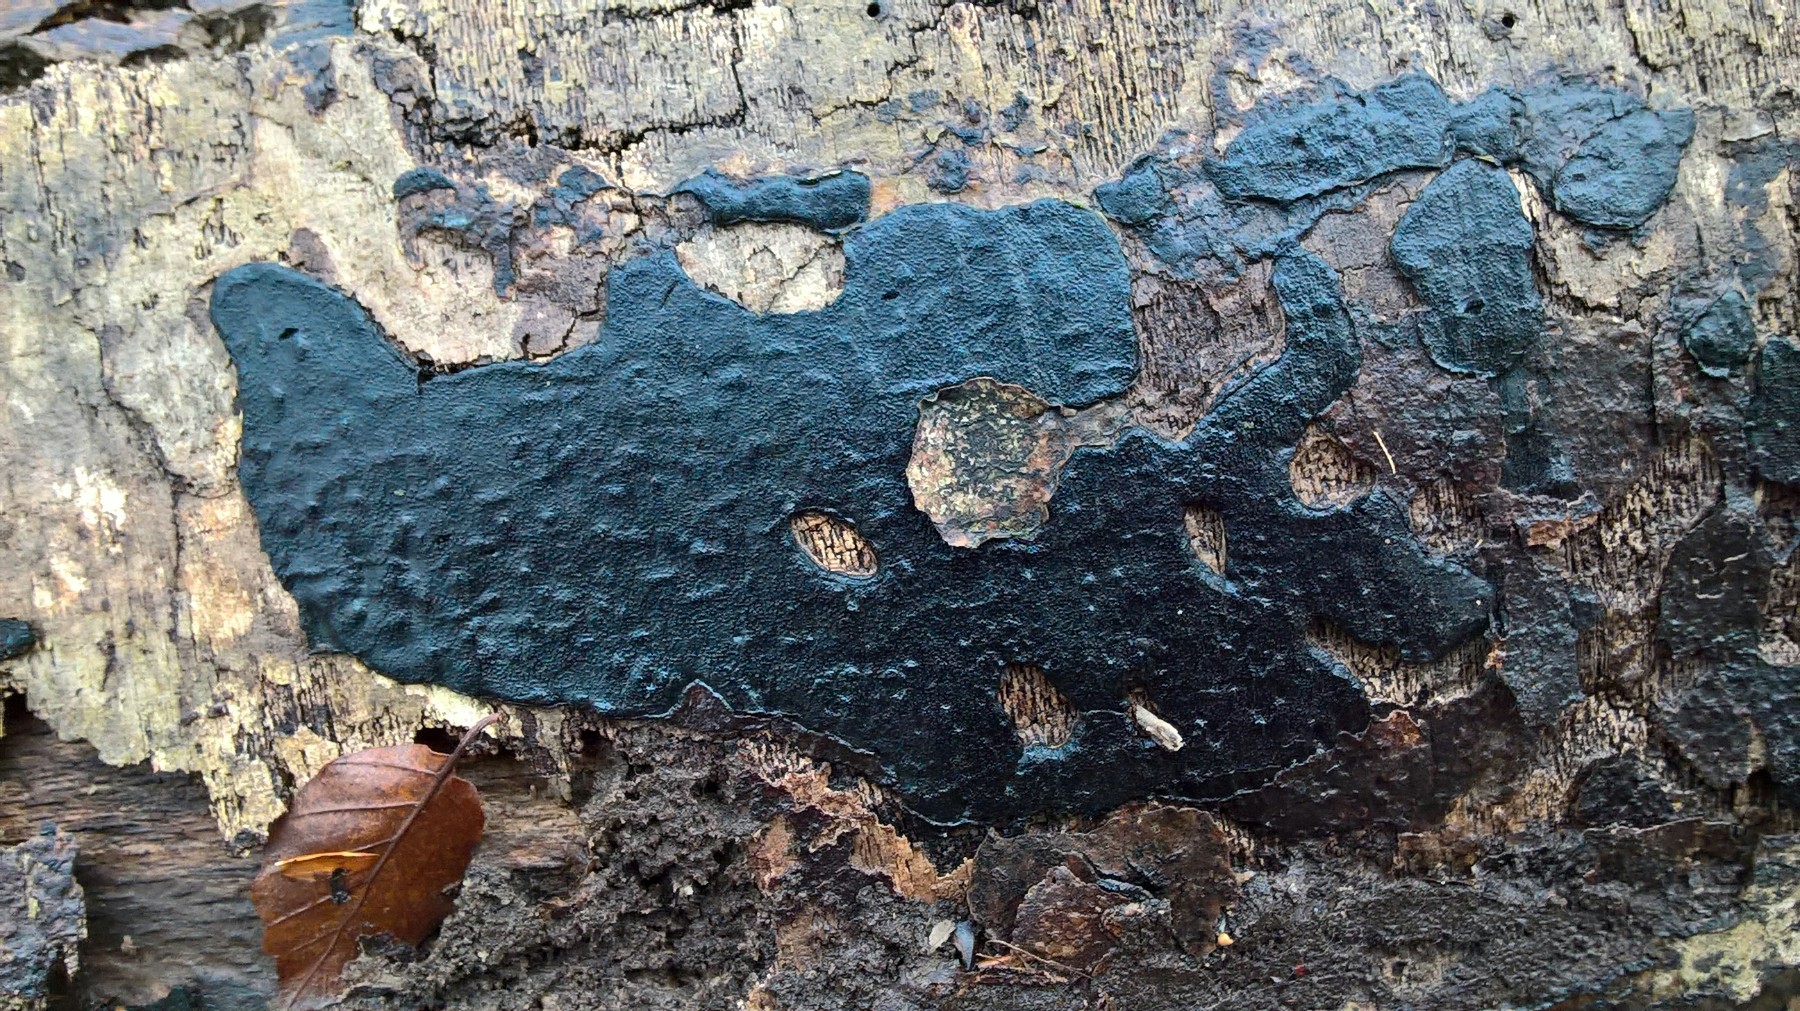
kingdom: Fungi
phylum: Ascomycota
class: Sordariomycetes
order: Xylariales
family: Graphostromataceae
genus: Biscogniauxia
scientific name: Biscogniauxia nummularia
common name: bøge-kulskive
